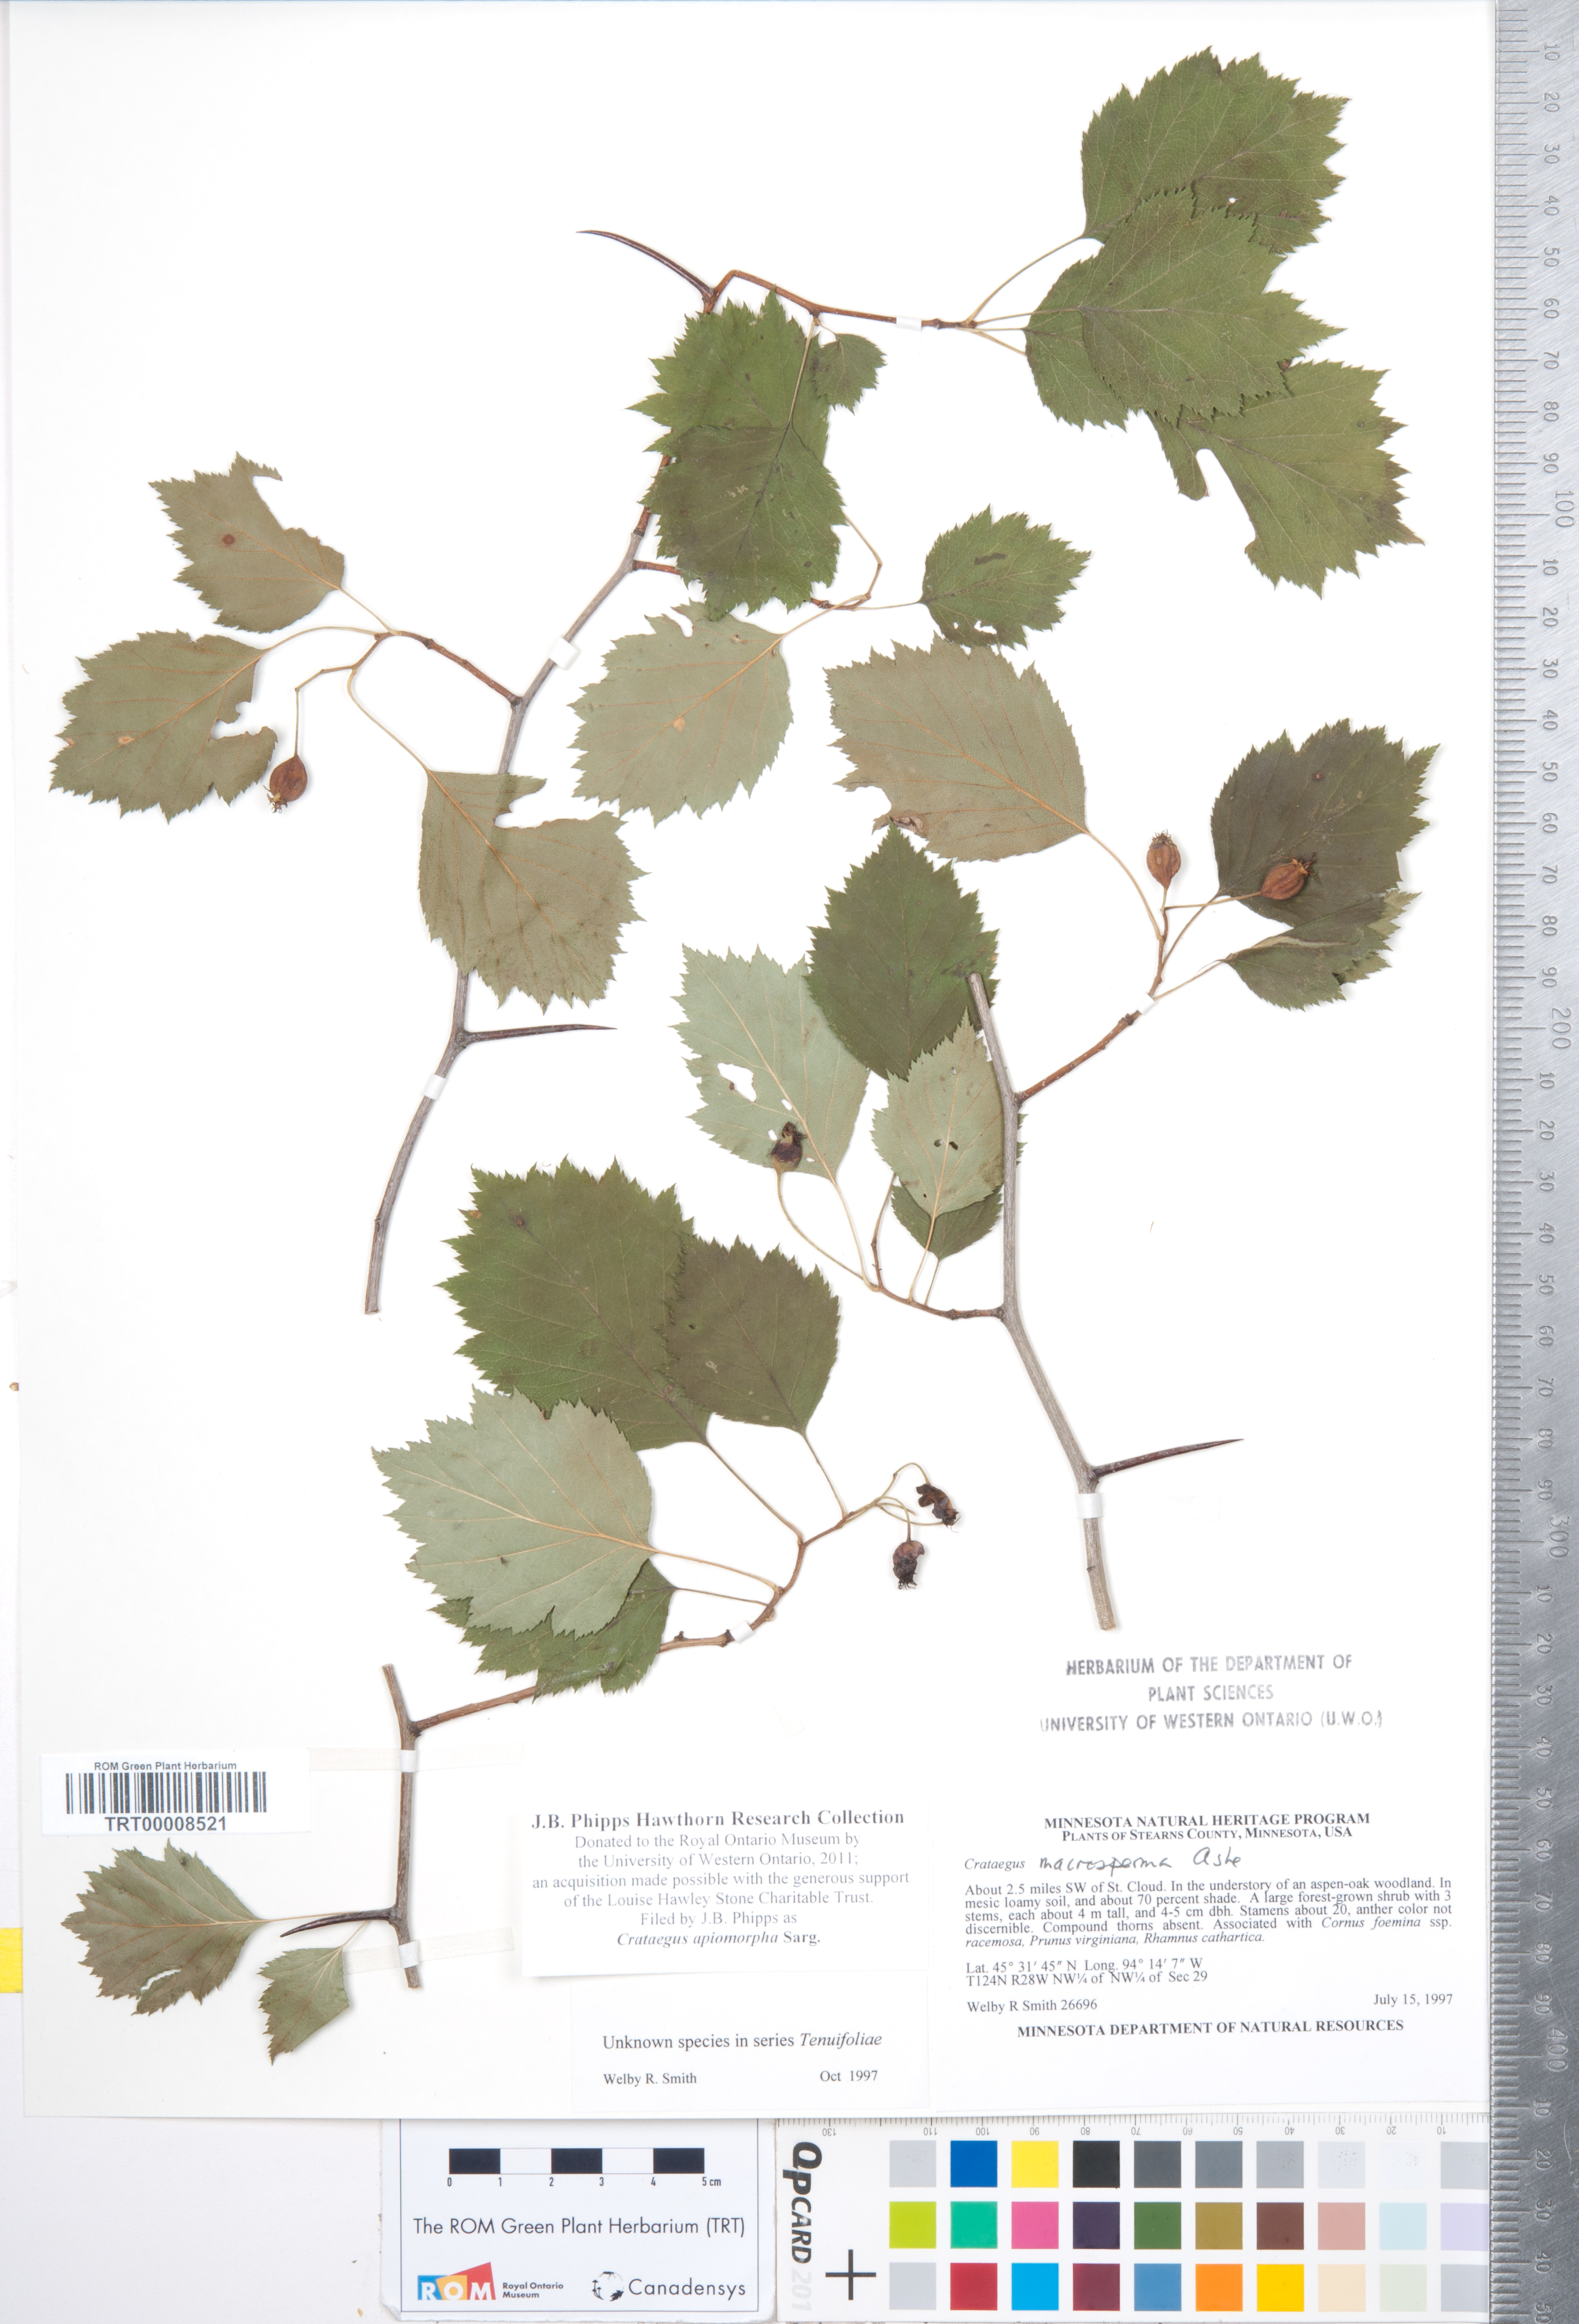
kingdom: Plantae
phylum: Tracheophyta
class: Magnoliopsida
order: Rosales
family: Rosaceae
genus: Crataegus
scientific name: Crataegus fluviatilis
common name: Fort sheridan hawthorn
